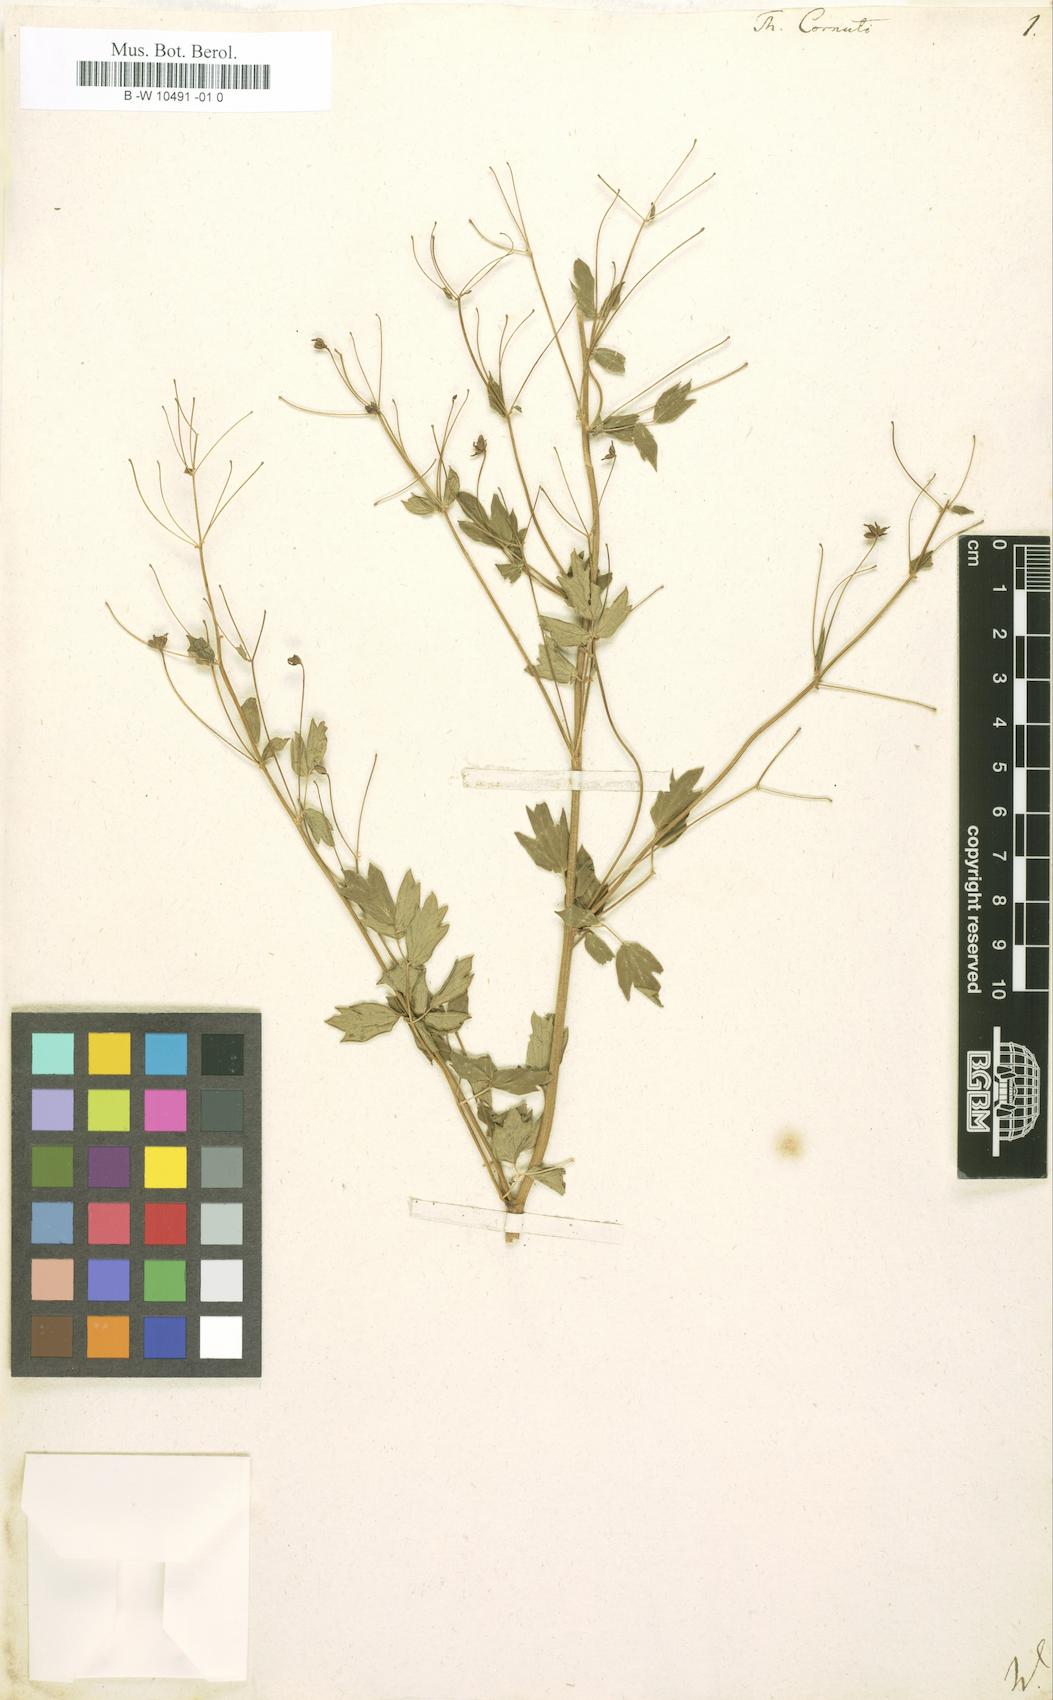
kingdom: Plantae
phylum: Tracheophyta
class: Magnoliopsida
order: Ranunculales
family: Ranunculaceae
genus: Thalictrum
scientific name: Thalictrum cornuti
